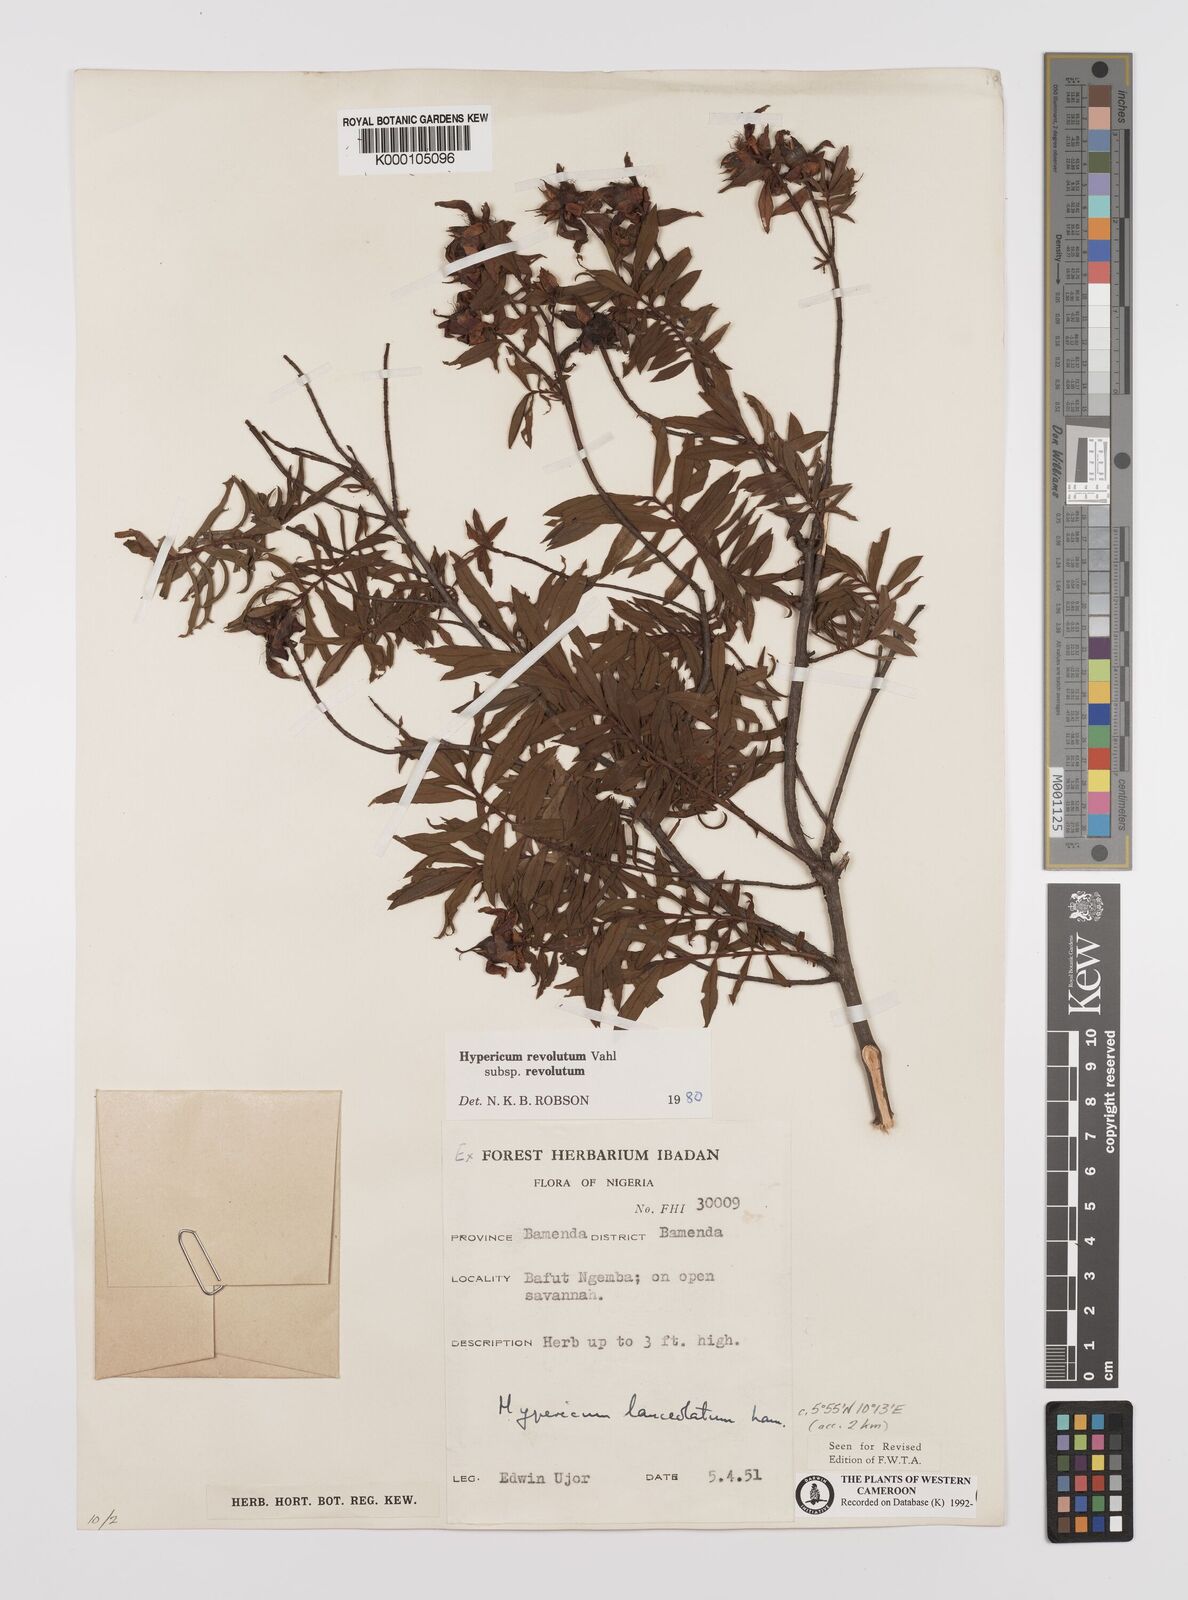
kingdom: Plantae
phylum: Tracheophyta
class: Magnoliopsida
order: Malpighiales
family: Hypericaceae
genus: Hypericum
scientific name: Hypericum revolutum
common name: Curry bush
